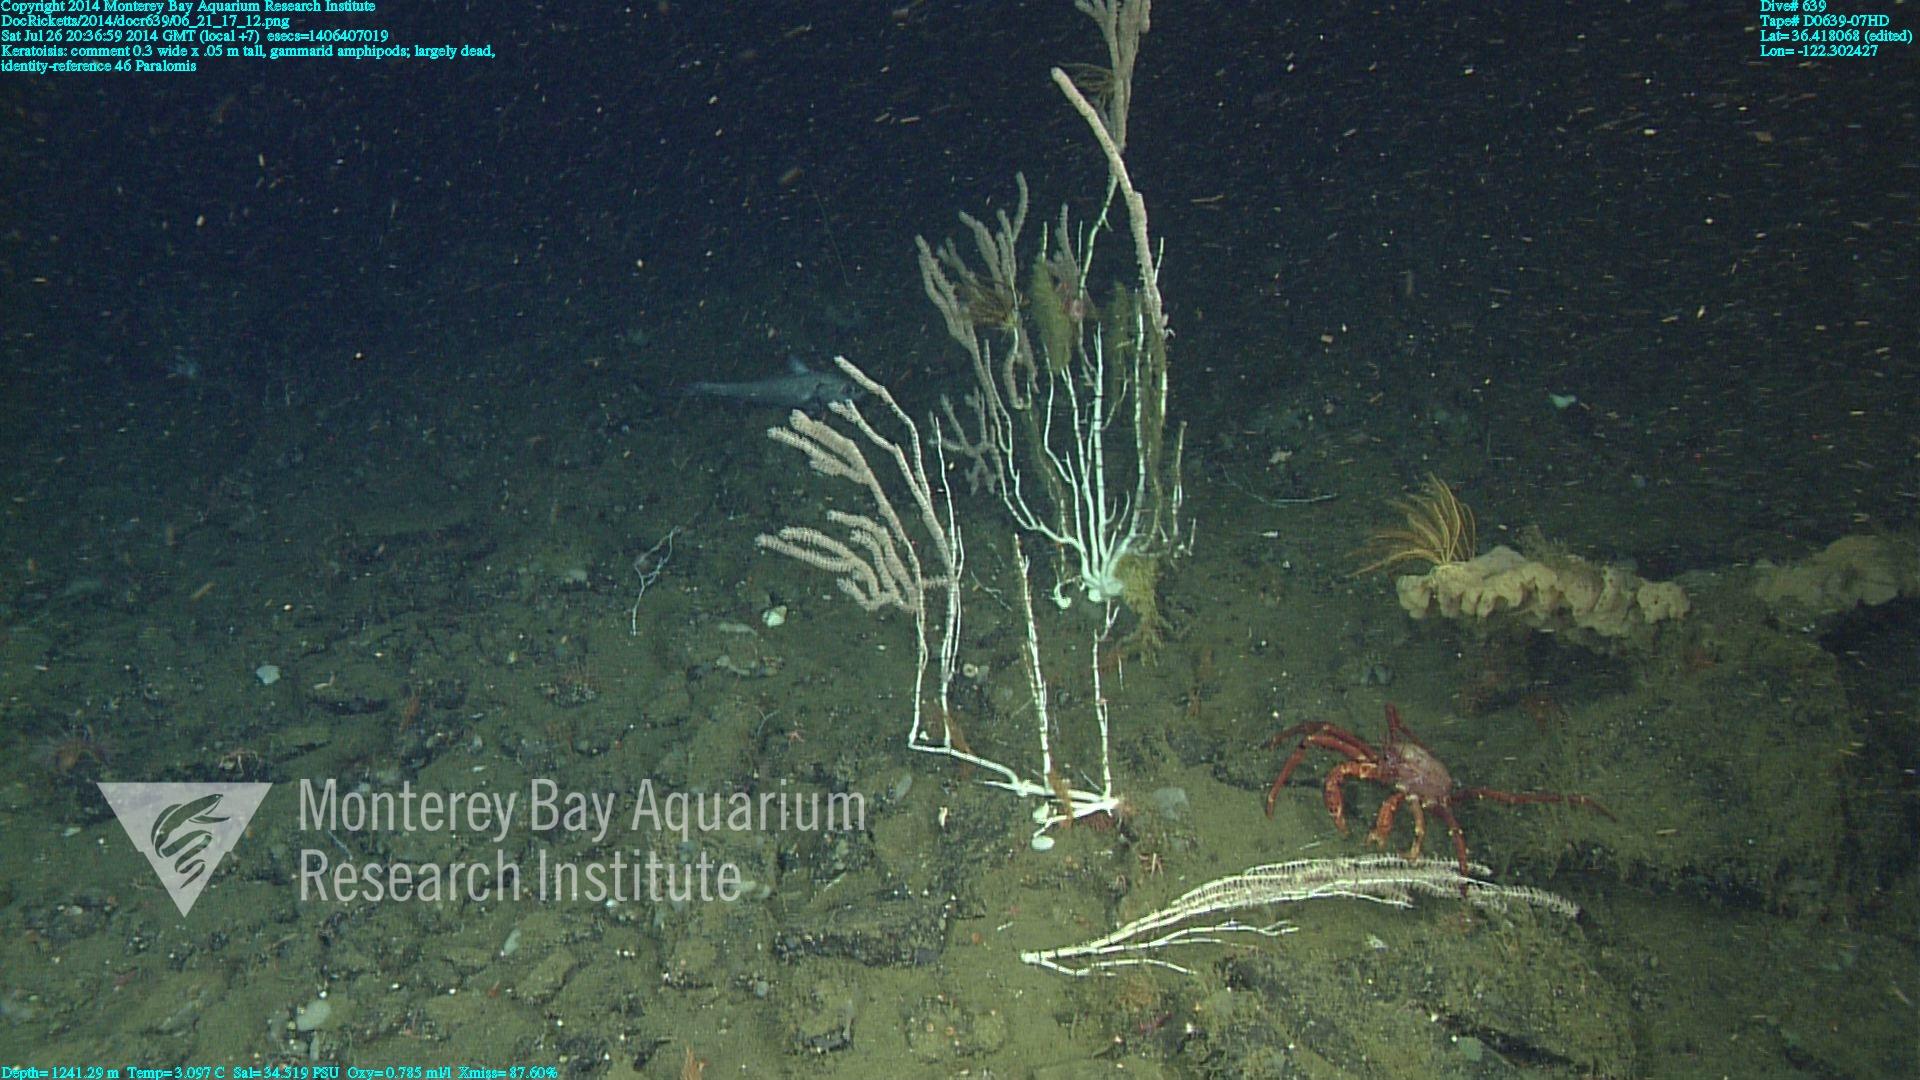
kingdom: Animalia
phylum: Cnidaria
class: Anthozoa
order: Scleralcyonacea
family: Keratoisididae
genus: Keratoisis
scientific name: Keratoisis
